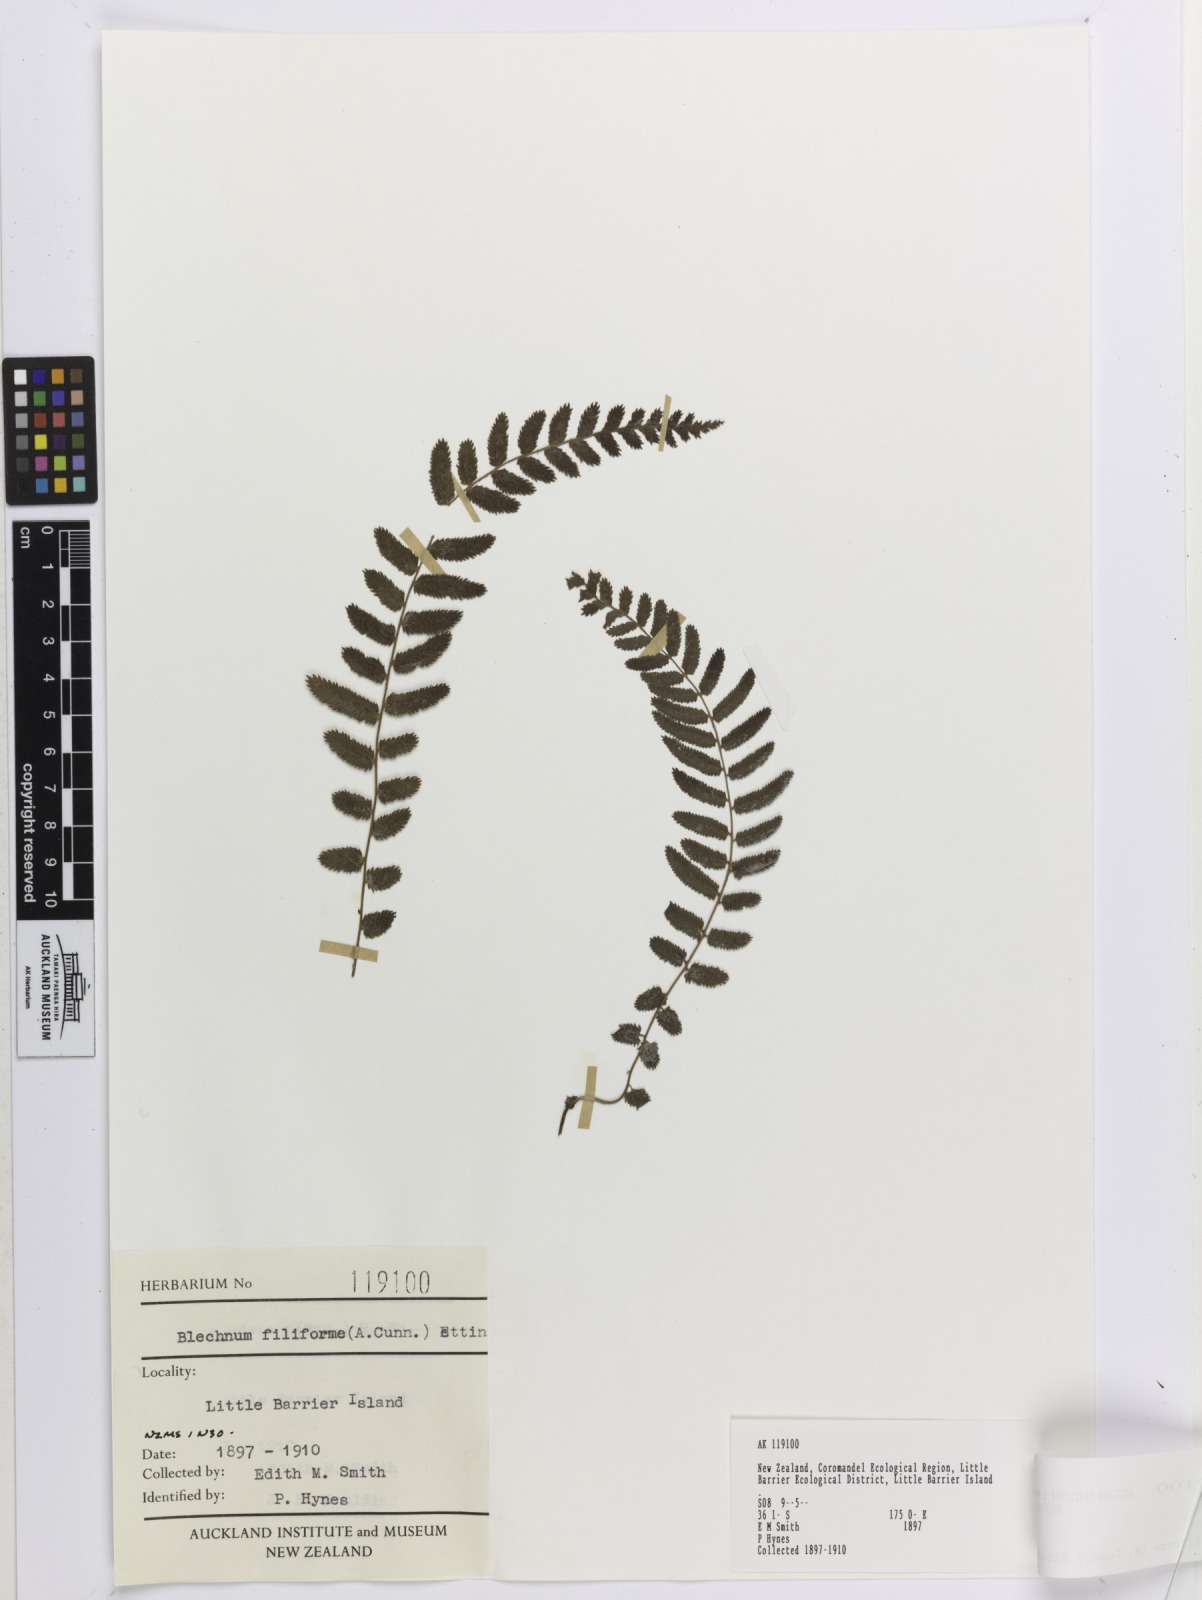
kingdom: Plantae
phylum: Tracheophyta
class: Polypodiopsida
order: Polypodiales
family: Blechnaceae
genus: Icarus
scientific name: Icarus filiformis
